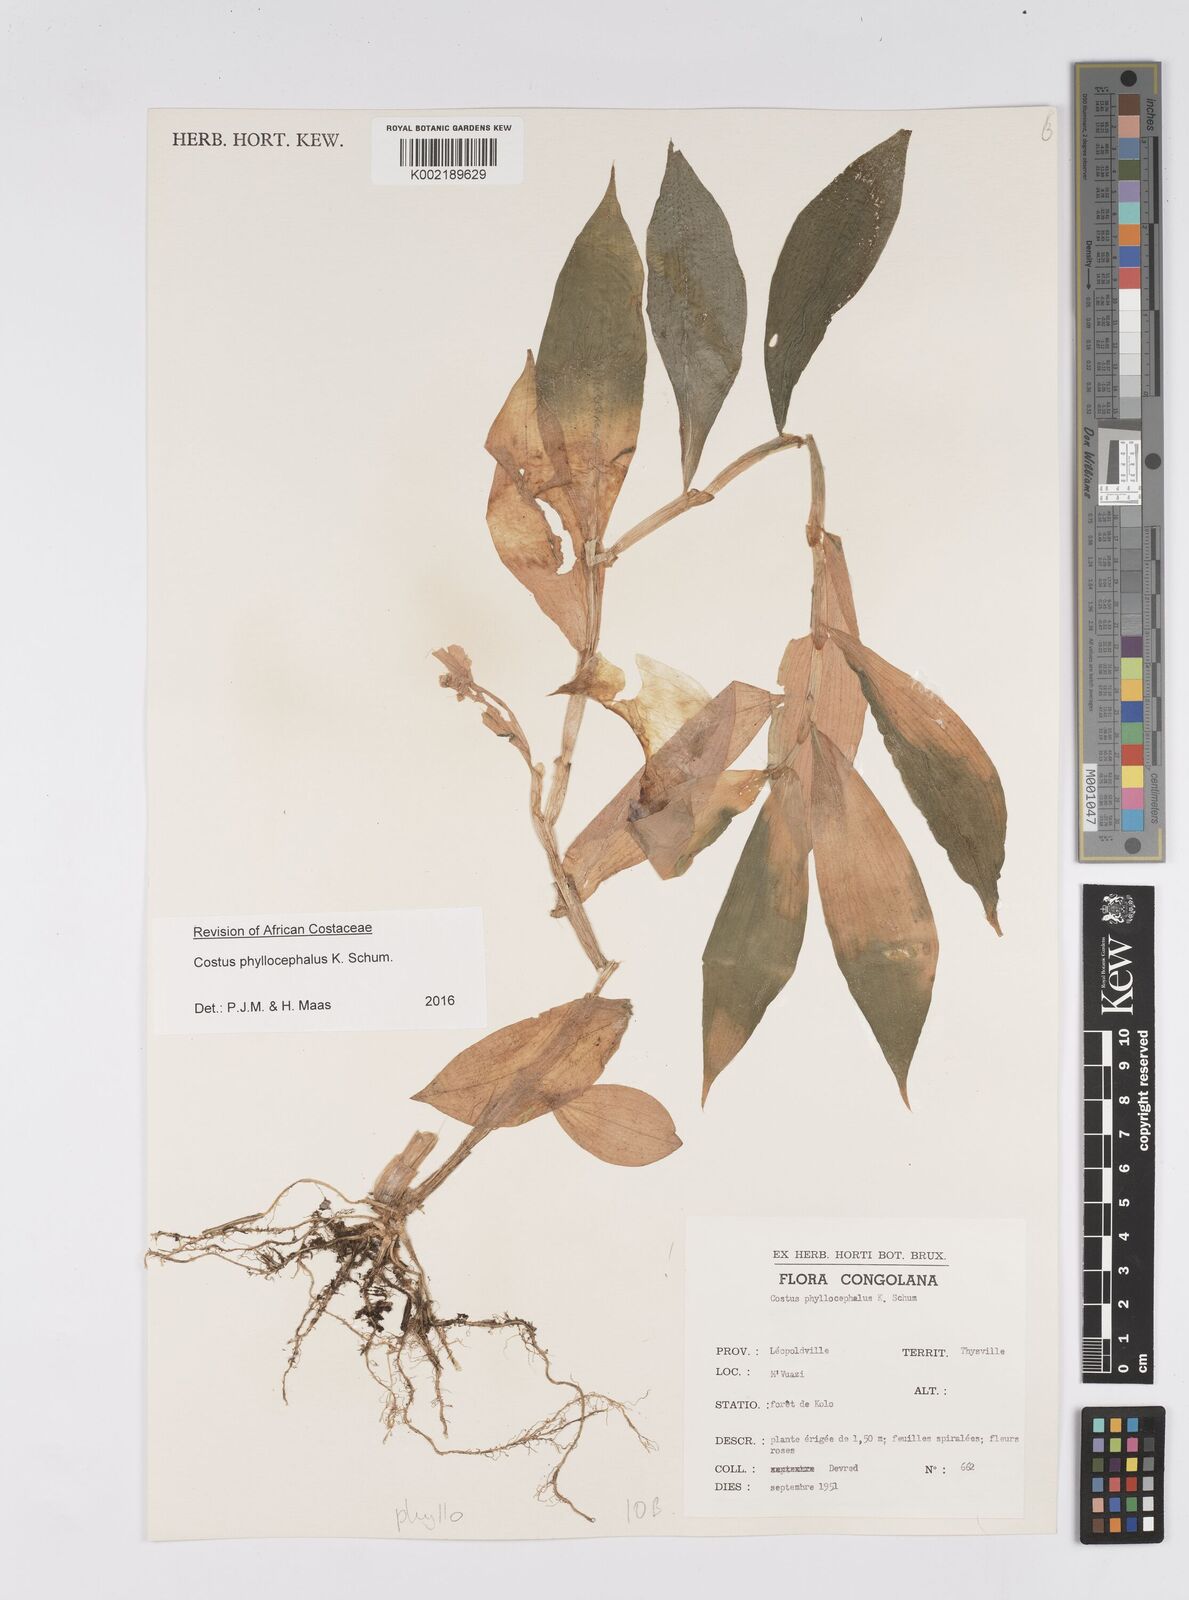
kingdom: Plantae
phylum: Tracheophyta
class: Liliopsida
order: Zingiberales
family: Costaceae
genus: Costus
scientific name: Costus phyllocephalus
